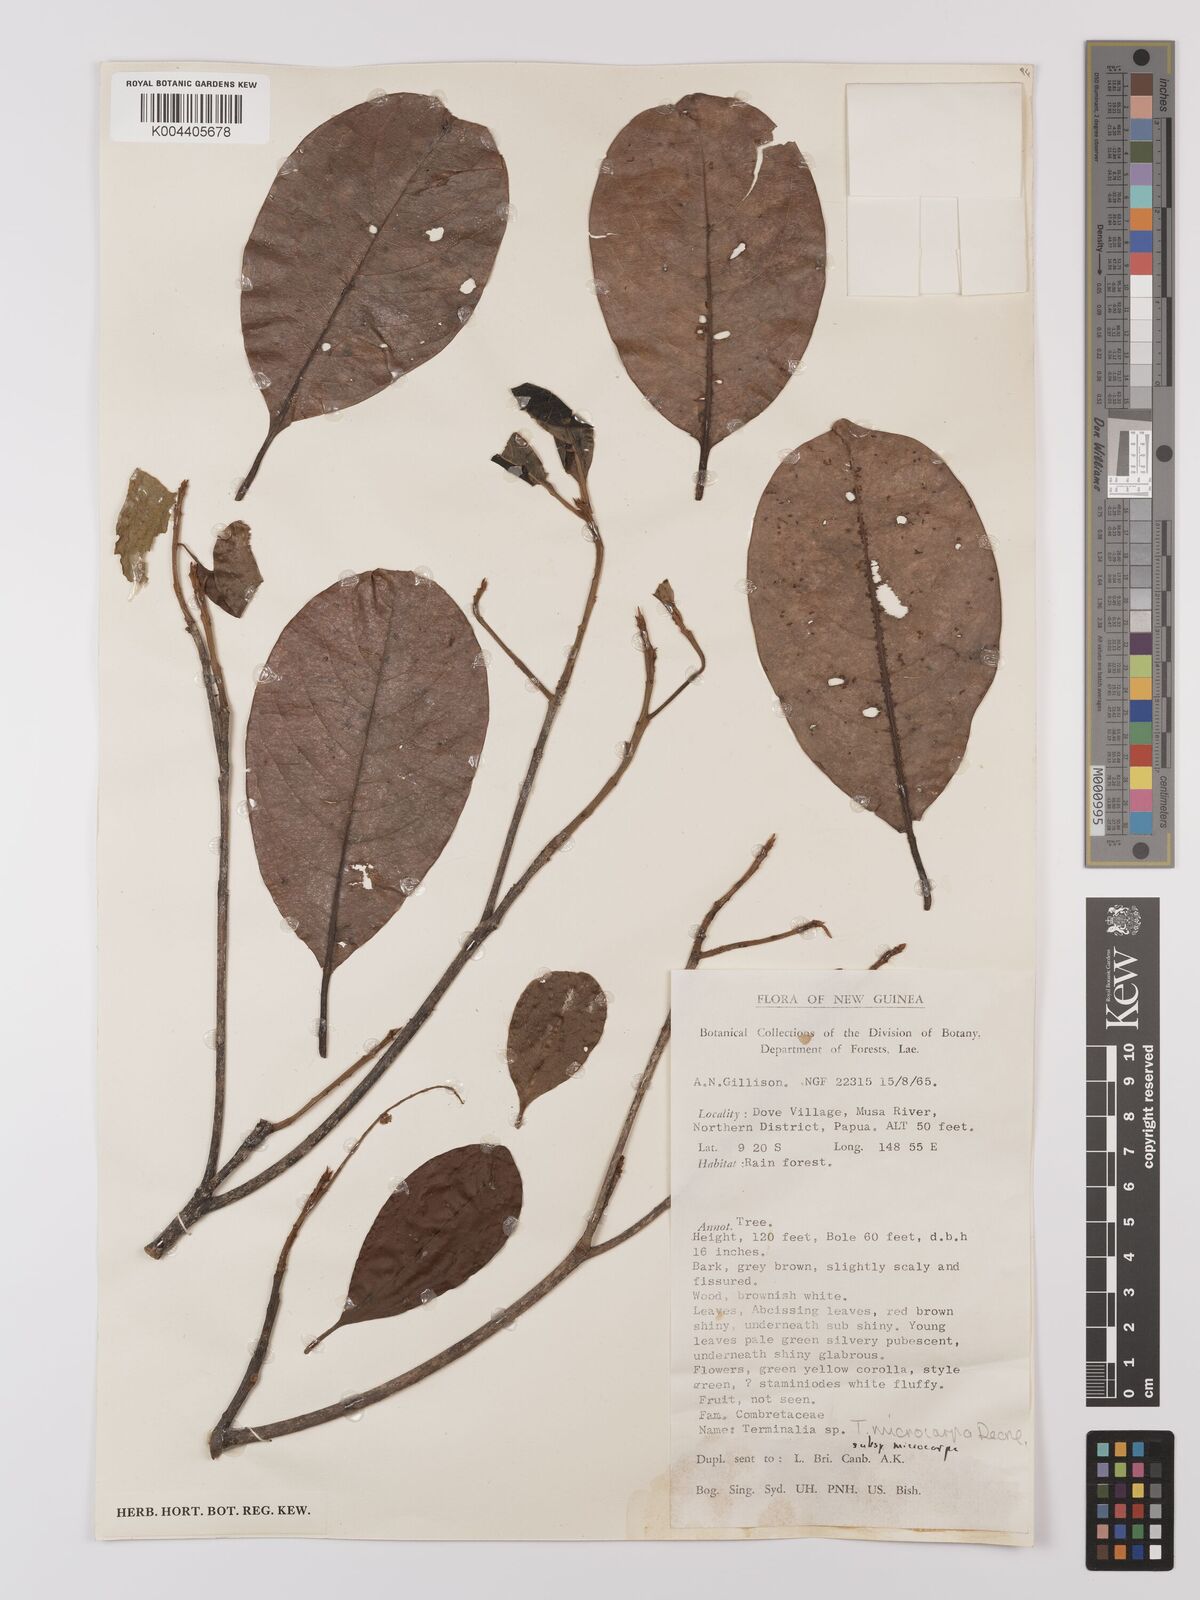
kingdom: Plantae
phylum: Tracheophyta
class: Magnoliopsida
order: Myrtales
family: Combretaceae
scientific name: Combretaceae
